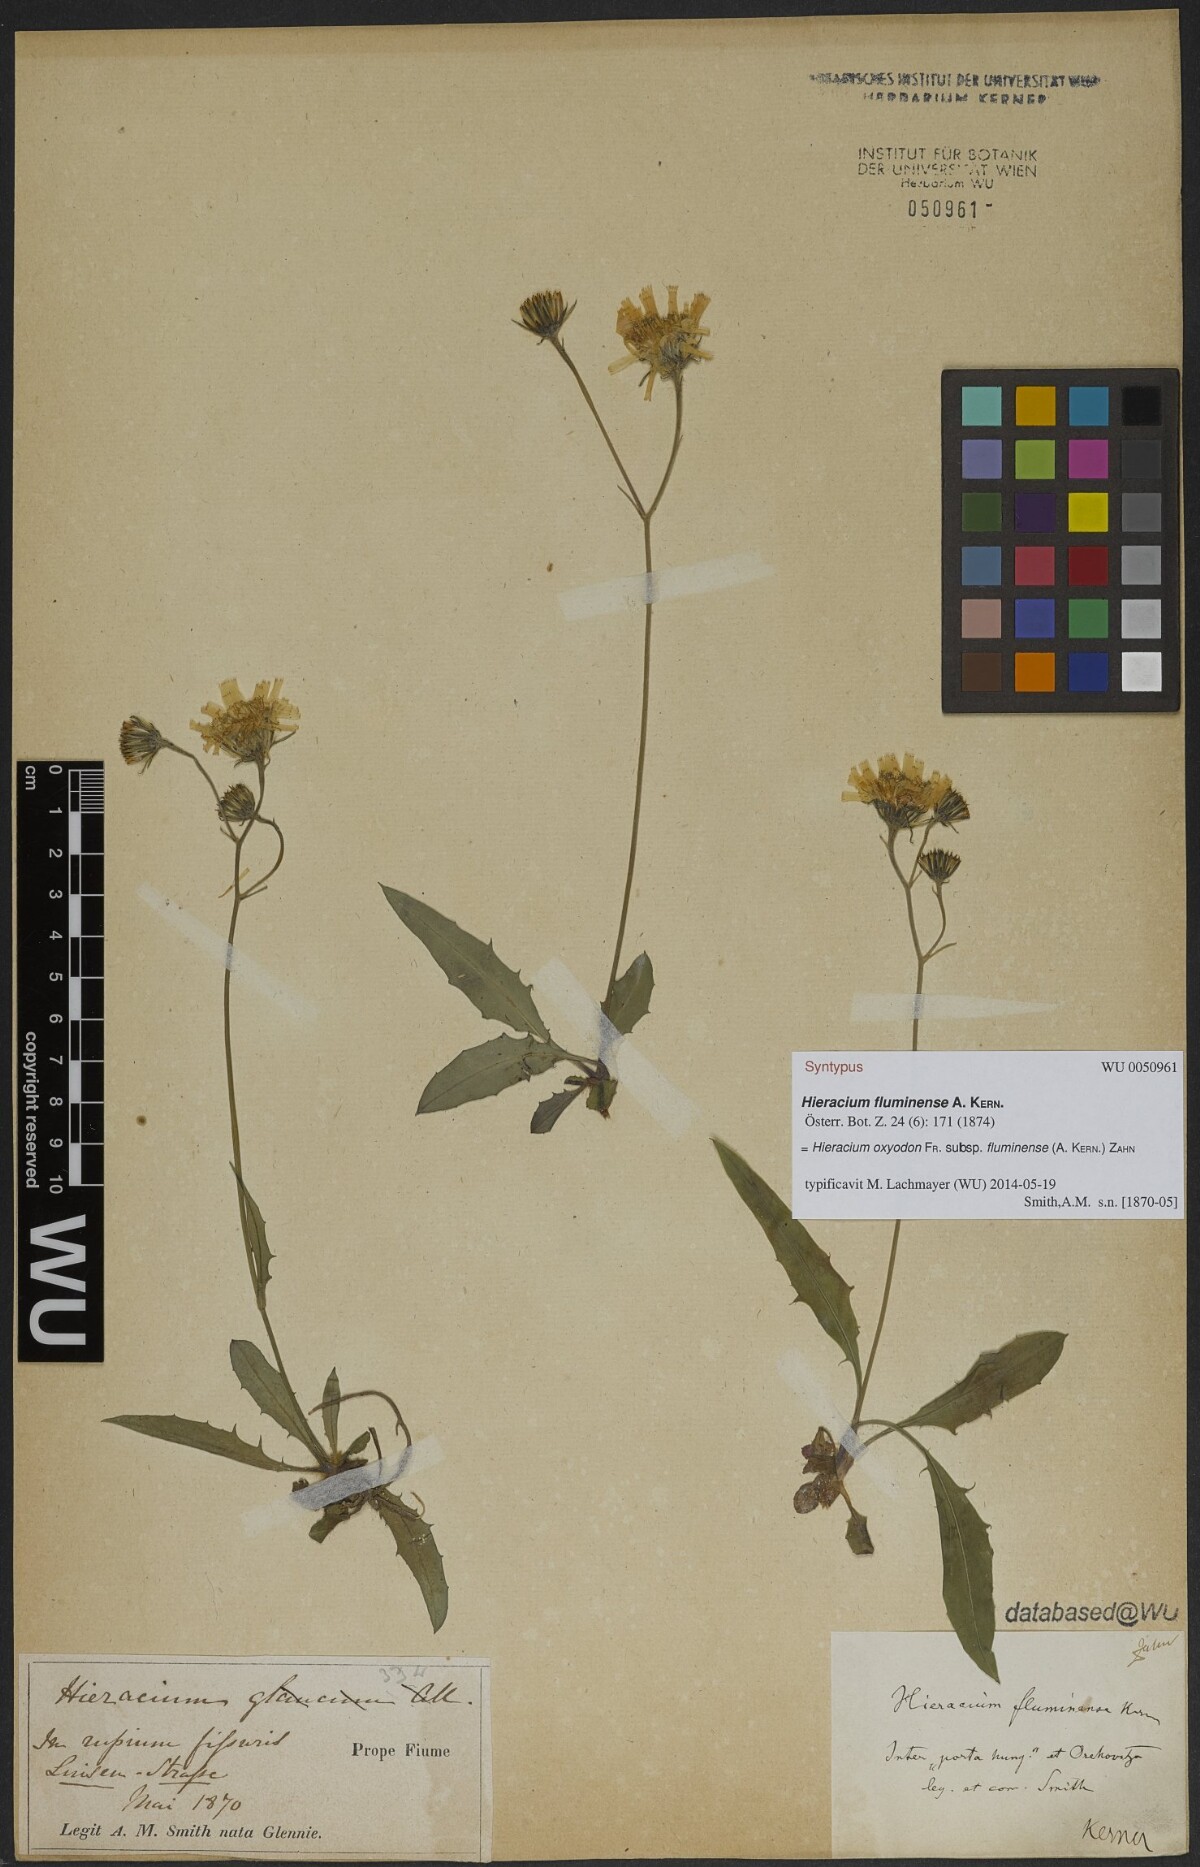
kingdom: Plantae
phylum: Tracheophyta
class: Magnoliopsida
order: Asterales
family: Asteraceae
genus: Hieracium
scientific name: Hieracium oxyodon
